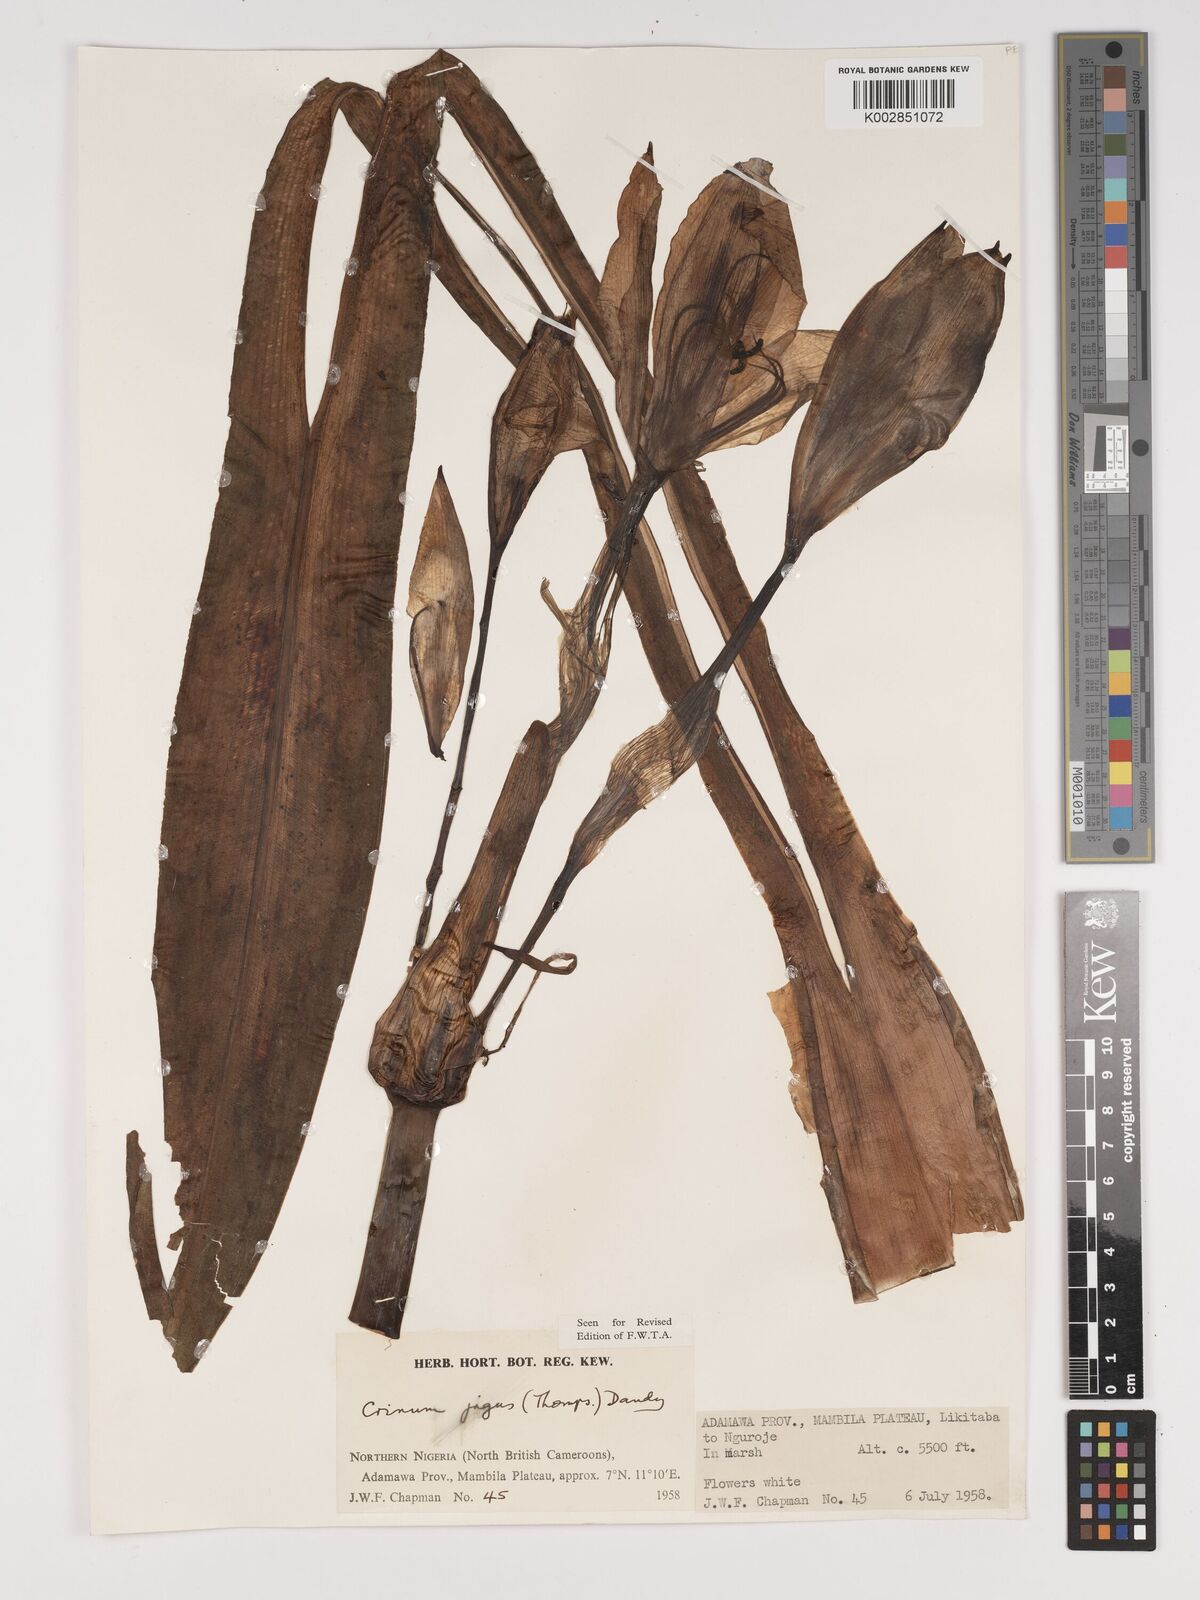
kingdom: Plantae
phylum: Tracheophyta
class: Liliopsida
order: Asparagales
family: Amaryllidaceae
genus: Crinum
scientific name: Crinum jagus
